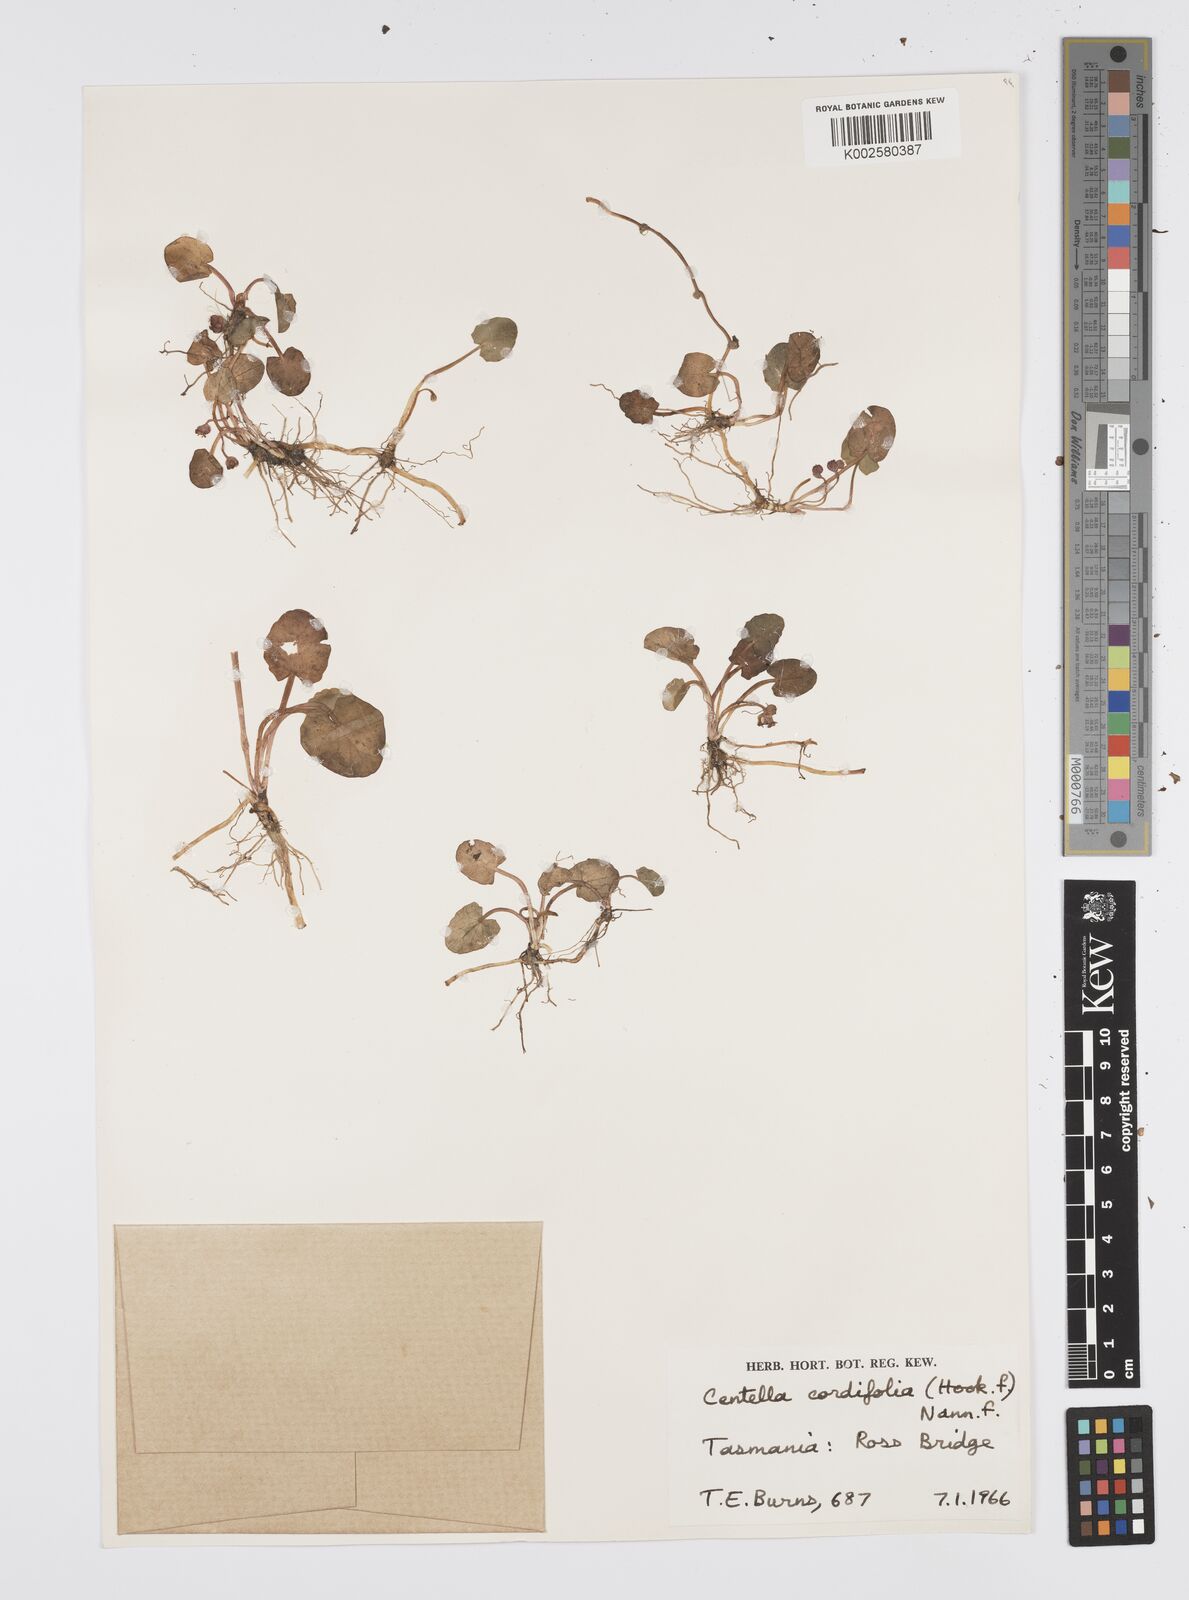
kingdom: Plantae
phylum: Tracheophyta
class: Magnoliopsida
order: Apiales
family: Apiaceae
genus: Centella
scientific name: Centella cordifolia
